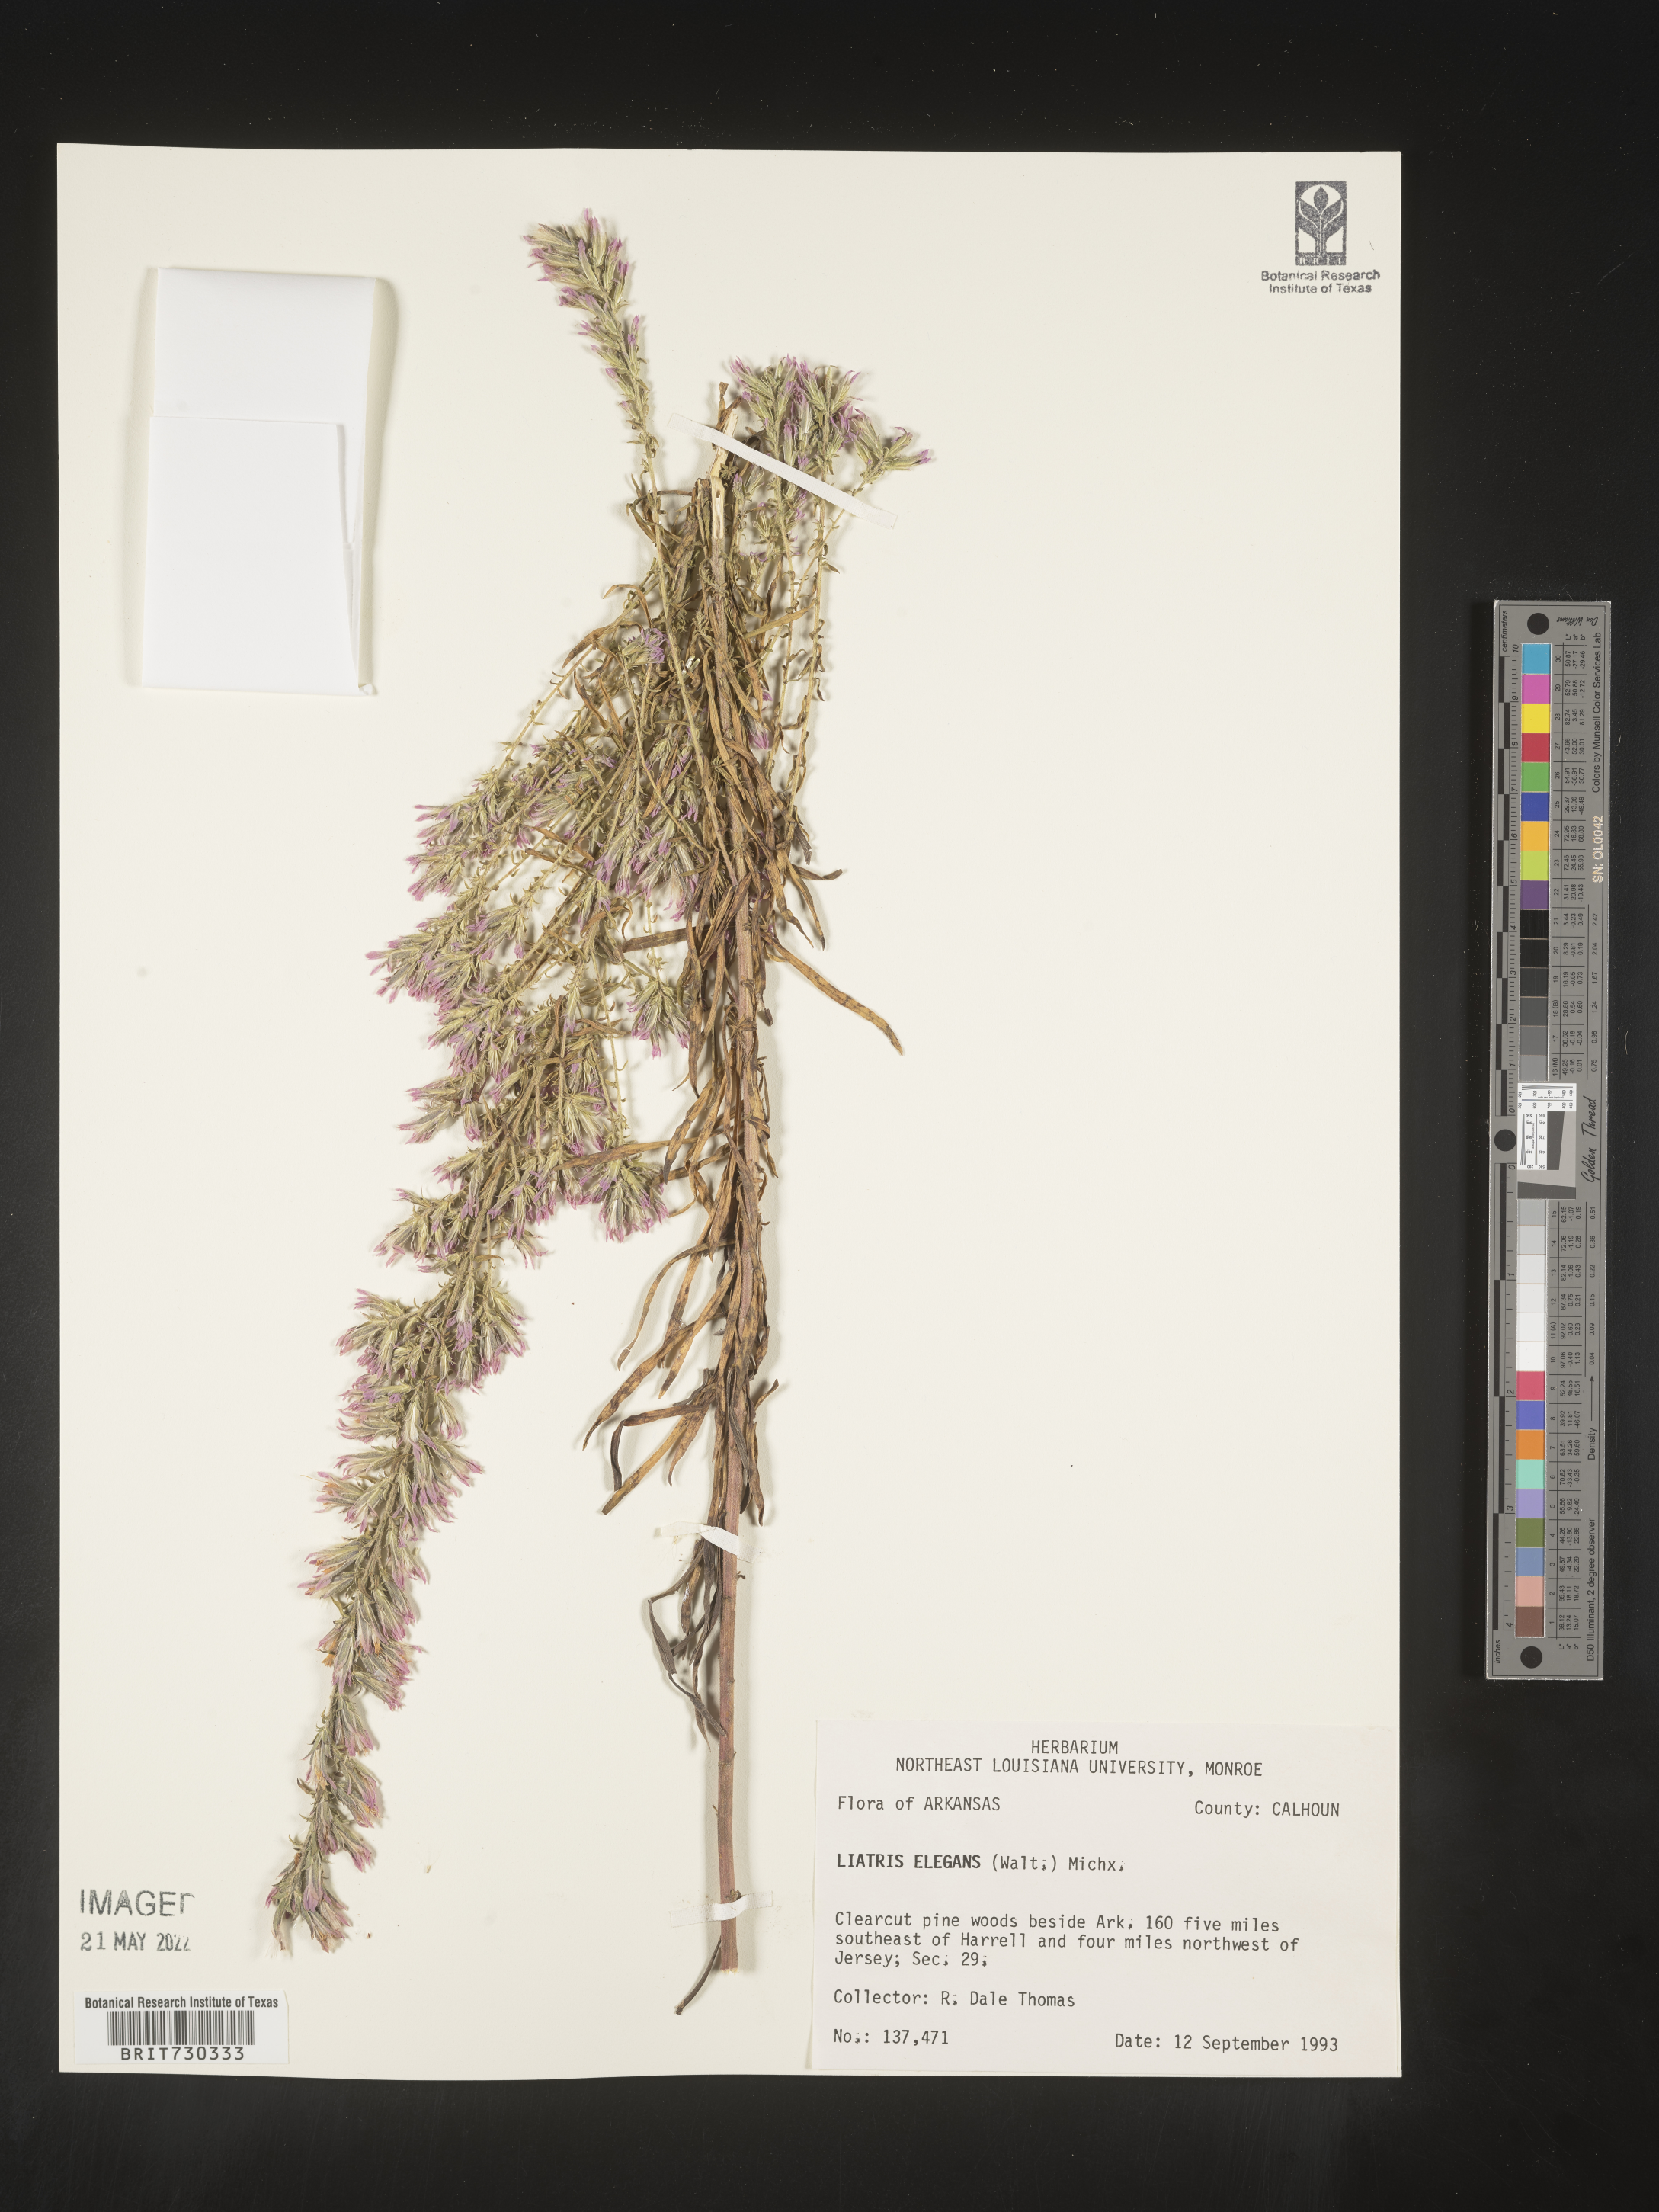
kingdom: Plantae
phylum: Tracheophyta
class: Magnoliopsida
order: Asterales
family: Asteraceae
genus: Liatris
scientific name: Liatris elegans
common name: Pinkscale gayfeather
